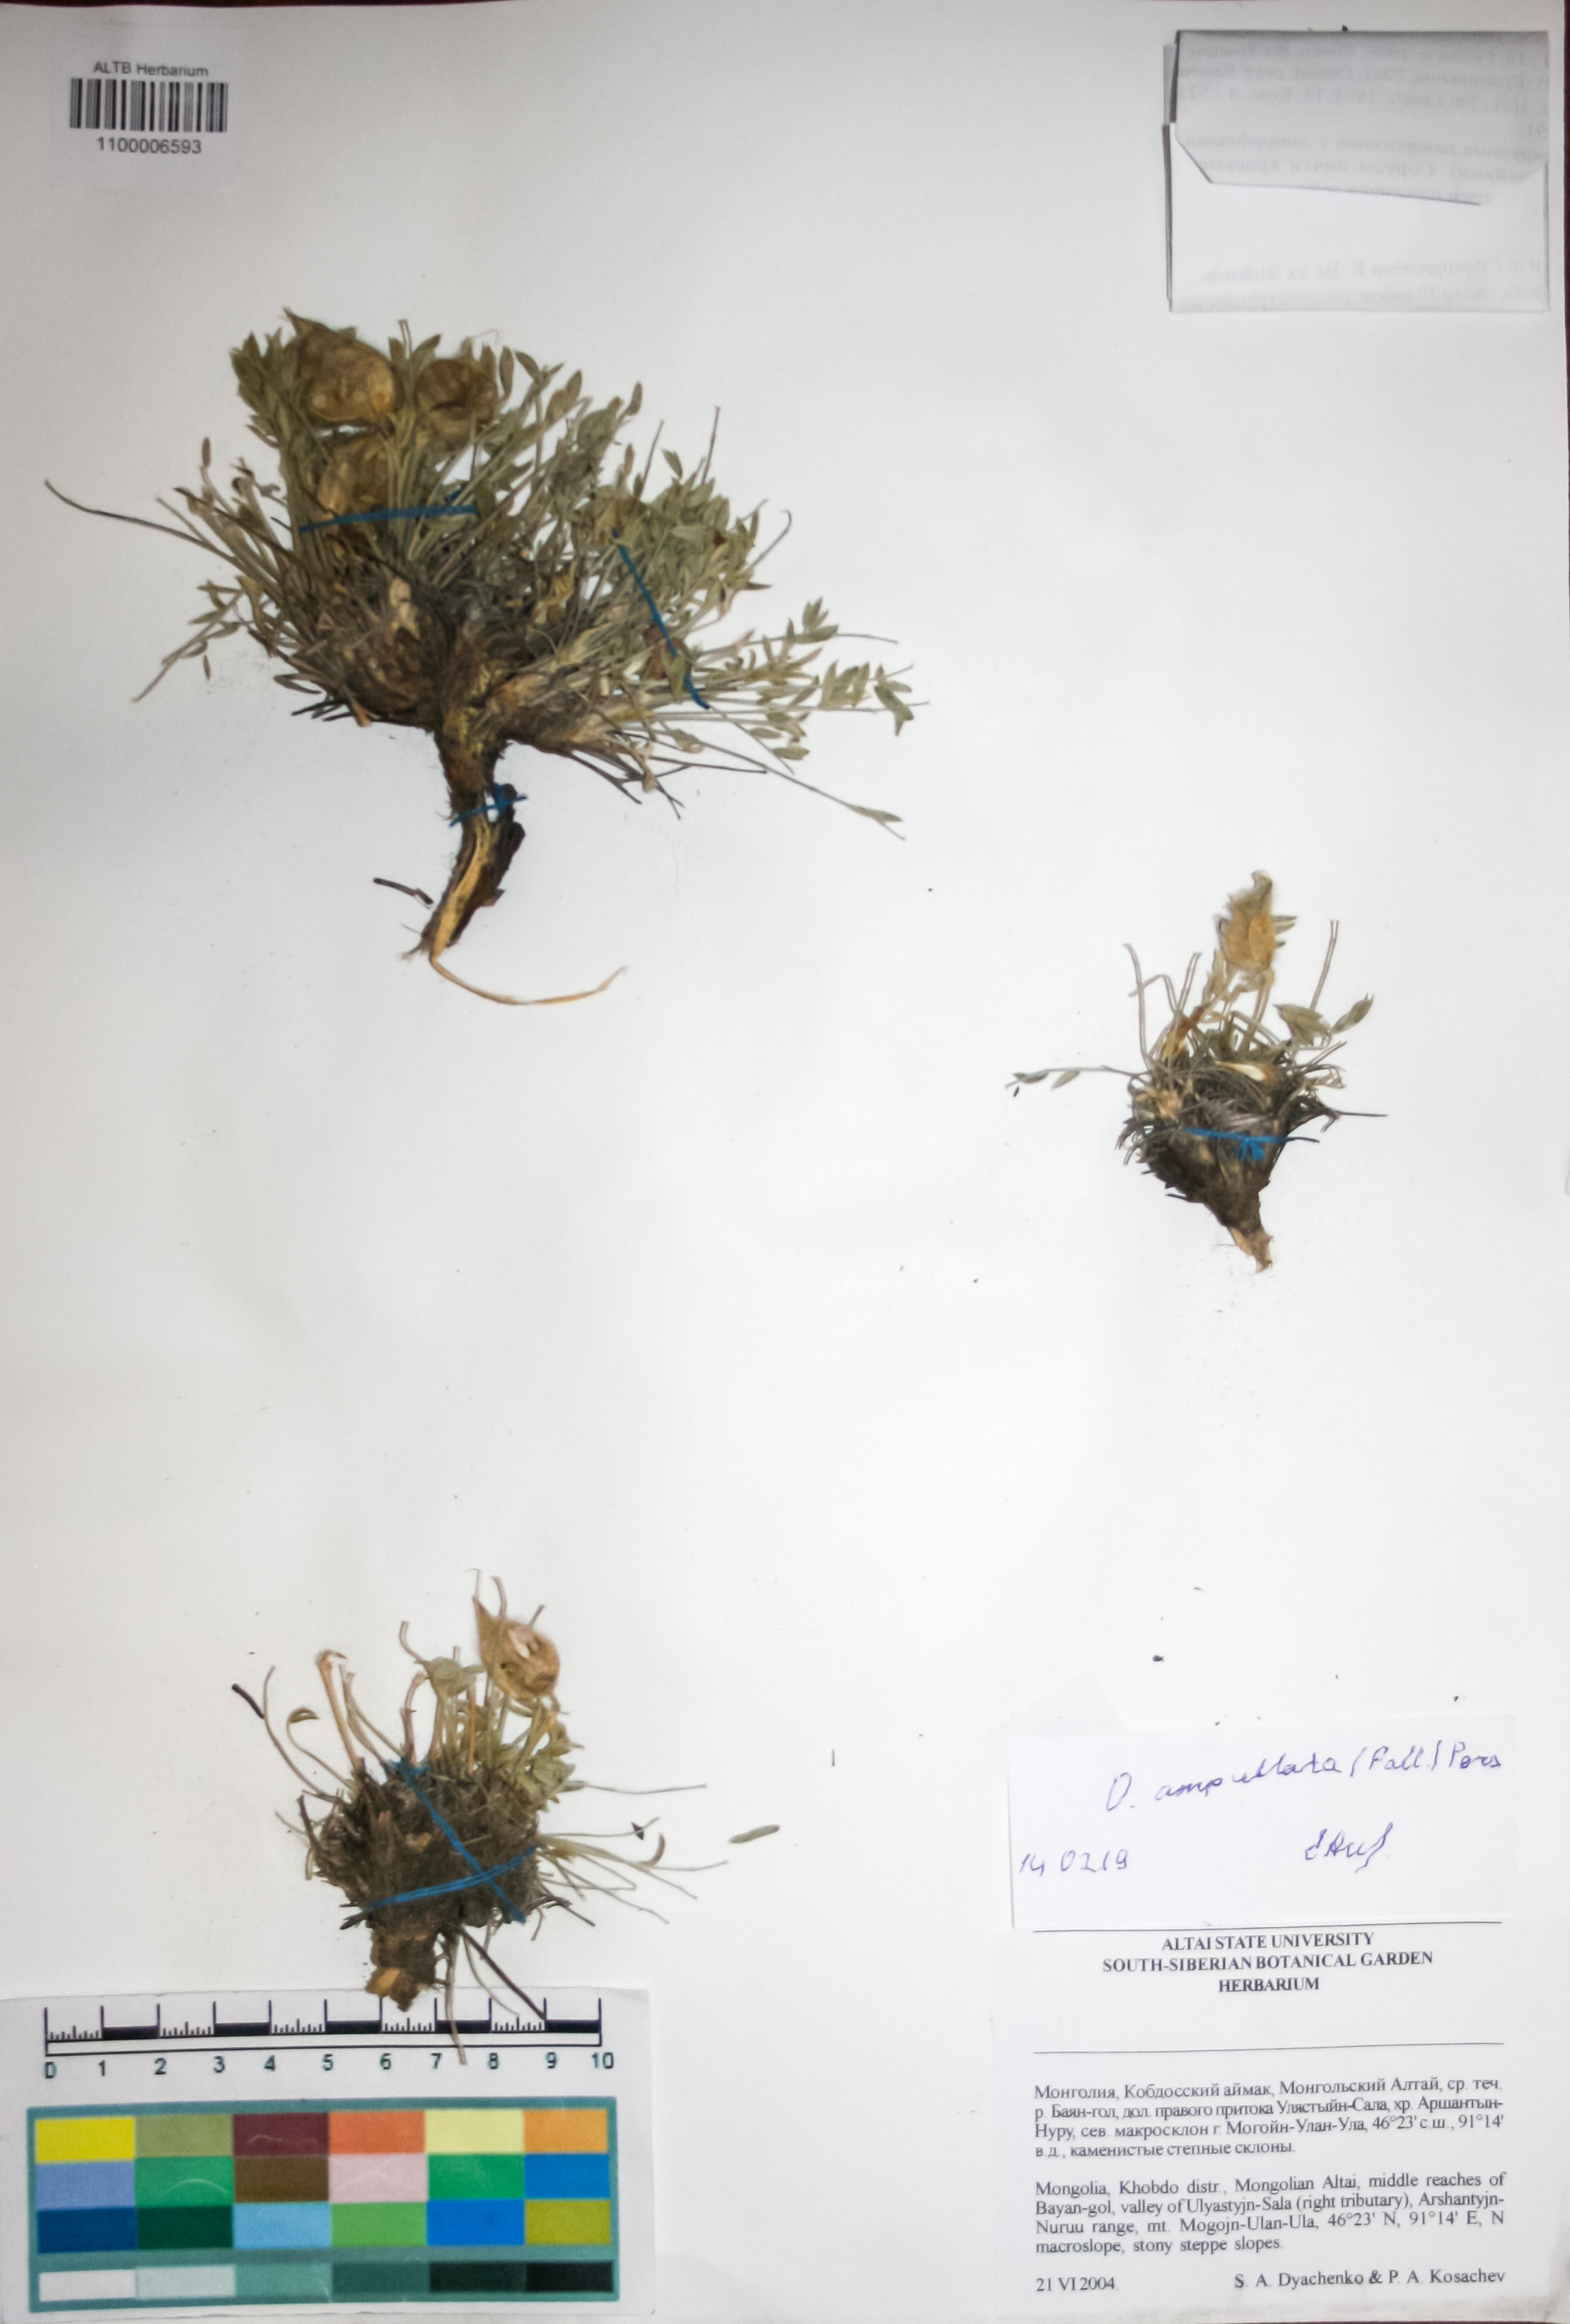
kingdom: Plantae
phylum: Tracheophyta
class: Magnoliopsida
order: Fabales
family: Fabaceae
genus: Oxytropis
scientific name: Oxytropis ampullata
